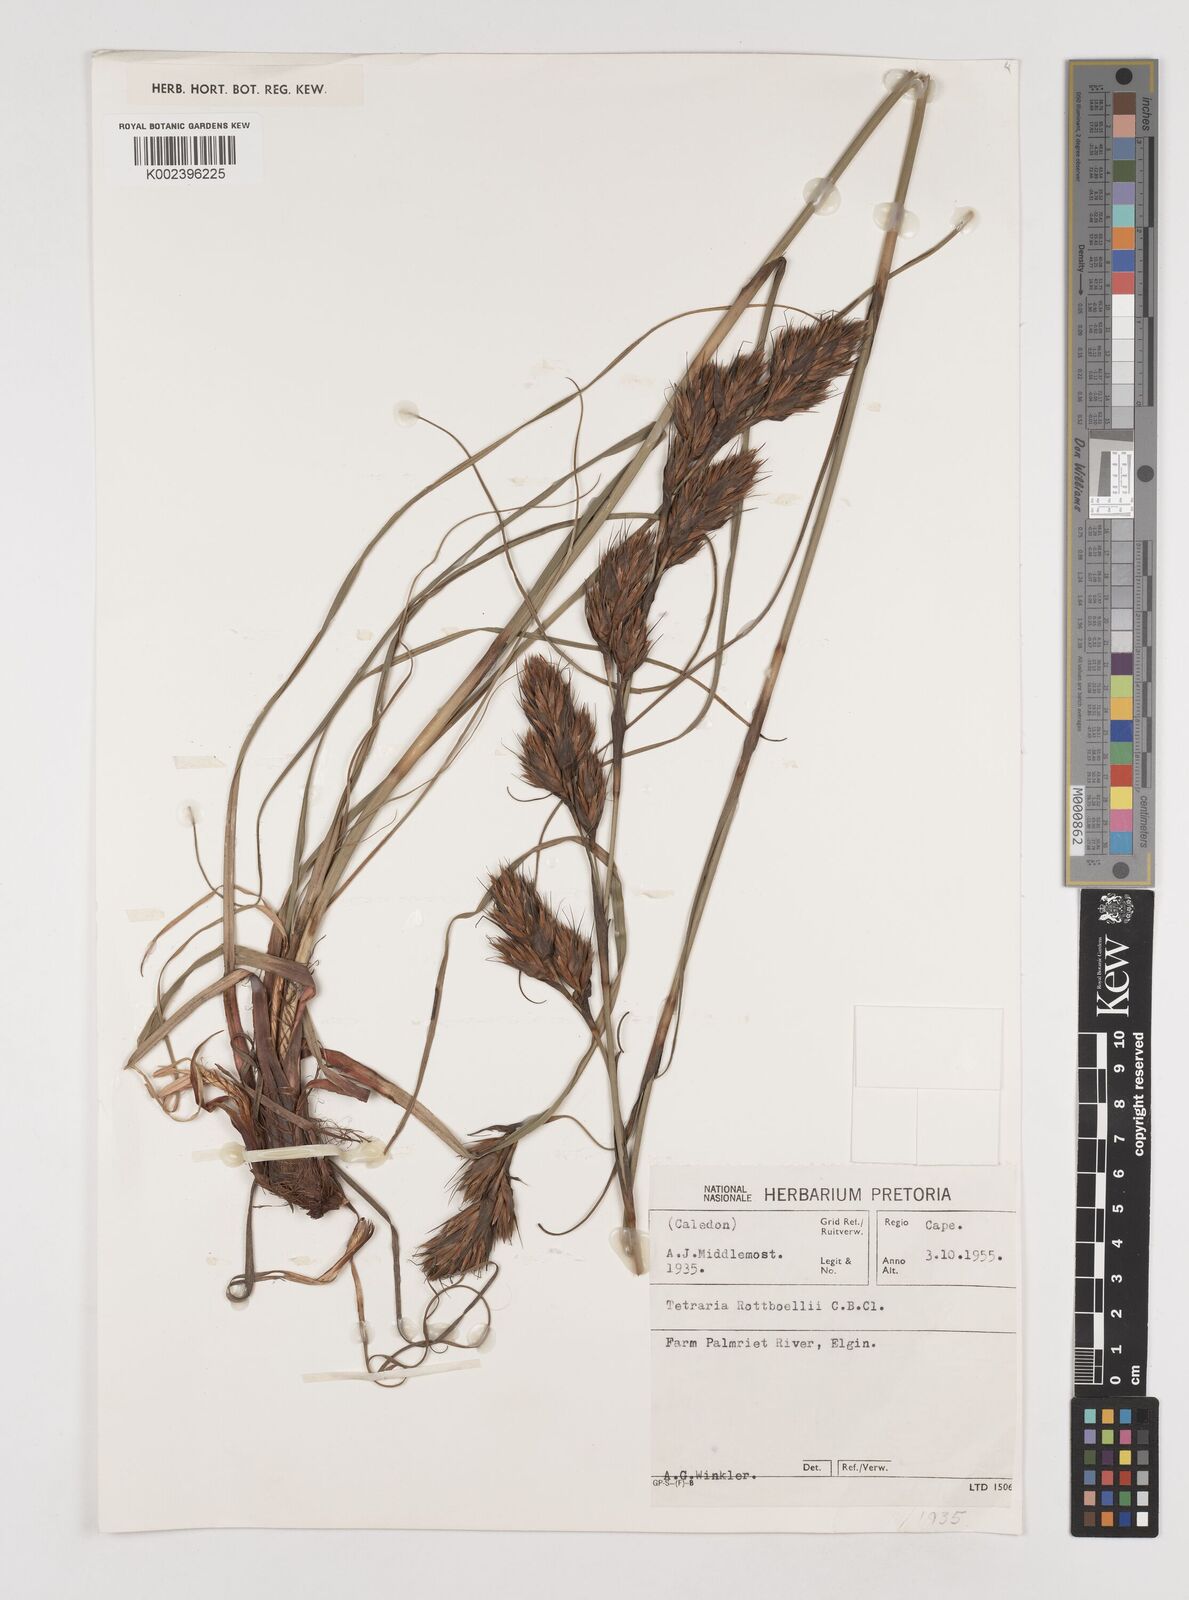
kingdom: Plantae
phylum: Tracheophyta
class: Liliopsida
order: Poales
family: Cyperaceae
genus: Tetraria
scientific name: Tetraria bromoides
